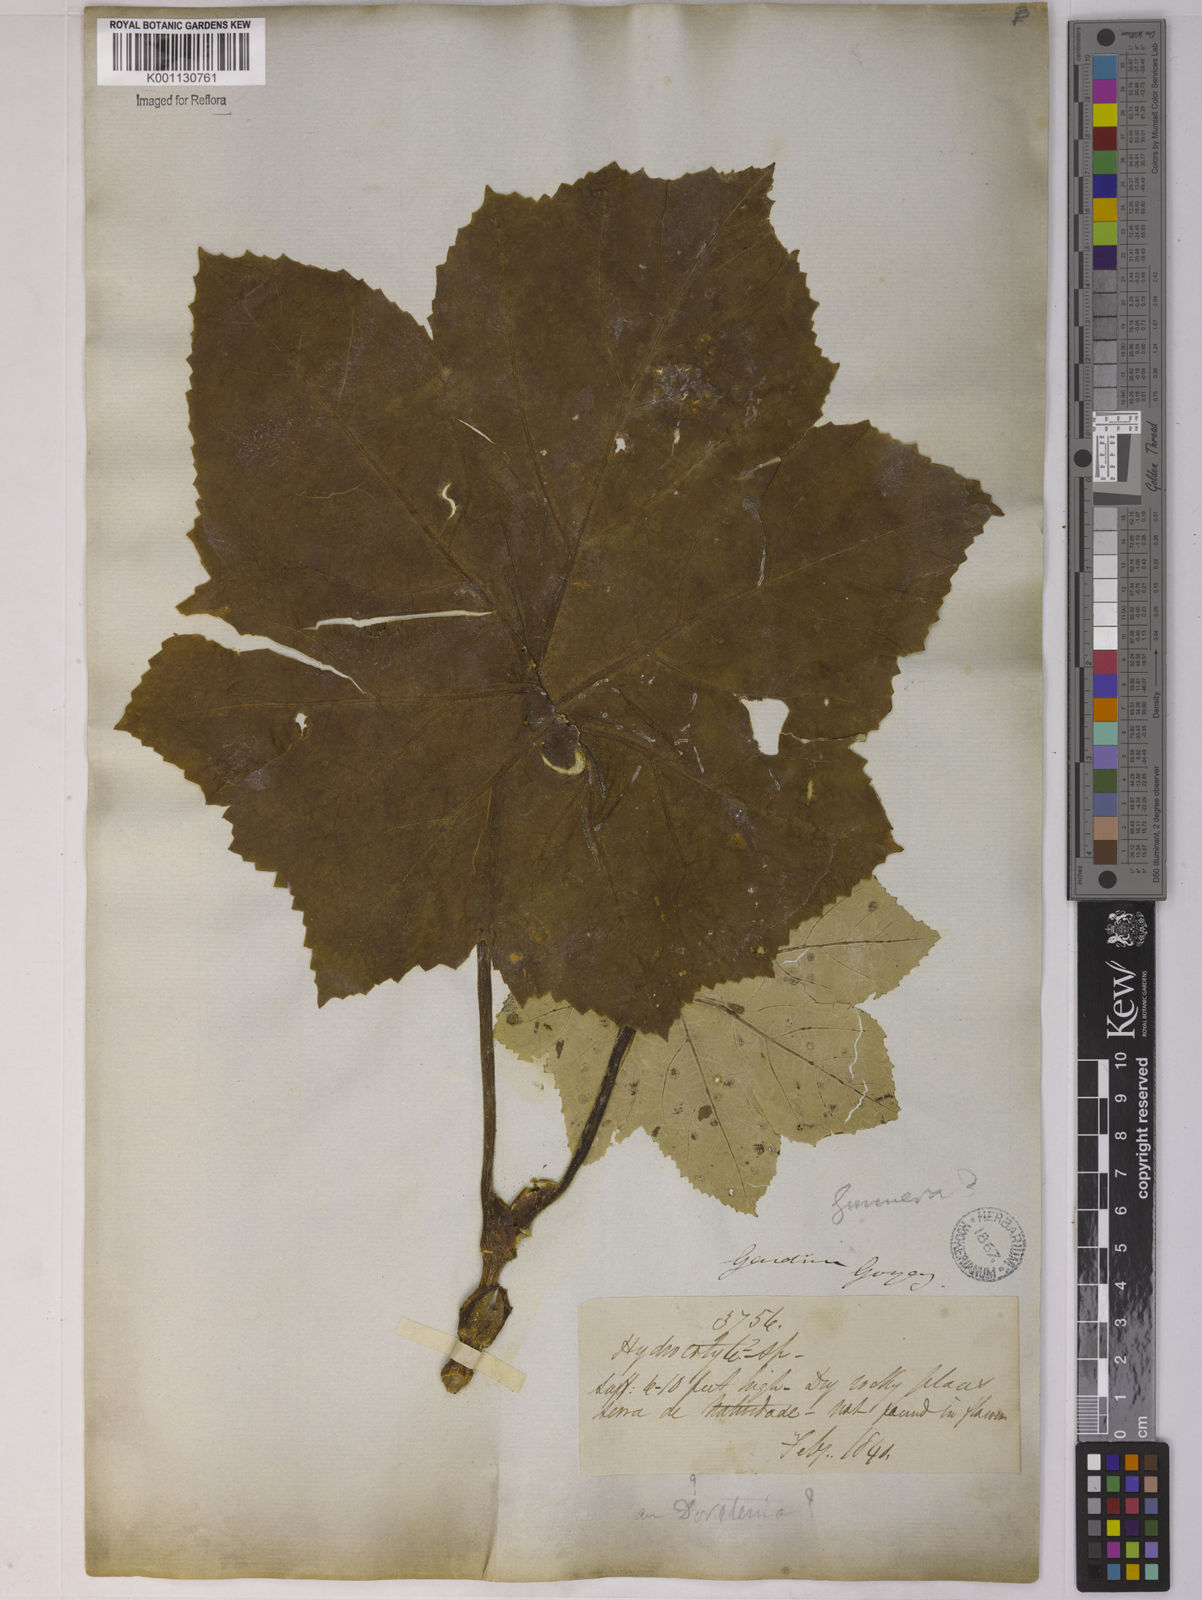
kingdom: Plantae
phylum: Tracheophyta
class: Magnoliopsida
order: Apiales
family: Apiaceae
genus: Klotzschia
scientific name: Klotzschia glaziovii
